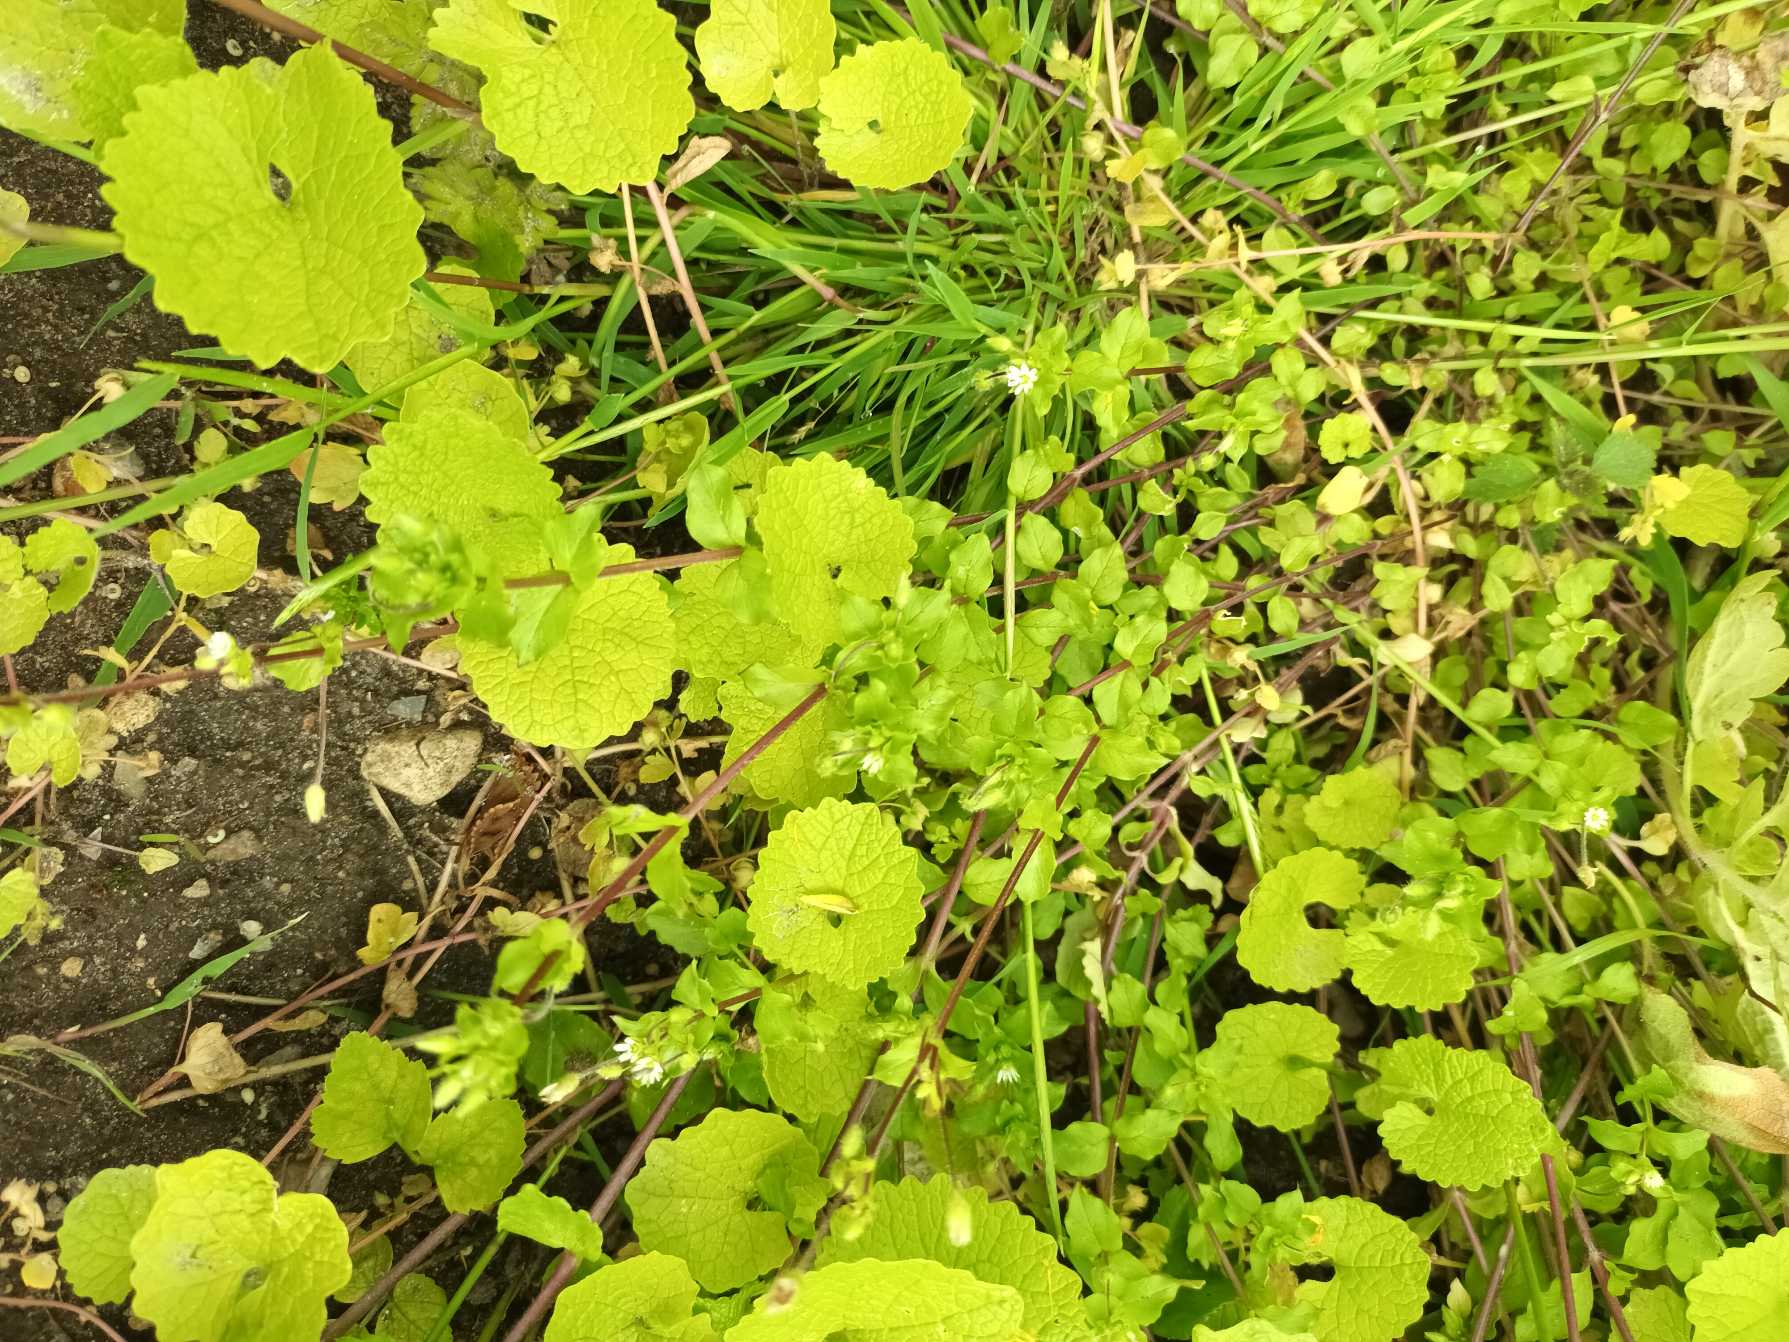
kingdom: Plantae
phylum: Tracheophyta
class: Magnoliopsida
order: Caryophyllales
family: Caryophyllaceae
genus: Stellaria
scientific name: Stellaria media
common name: Almindelig fuglegræs
